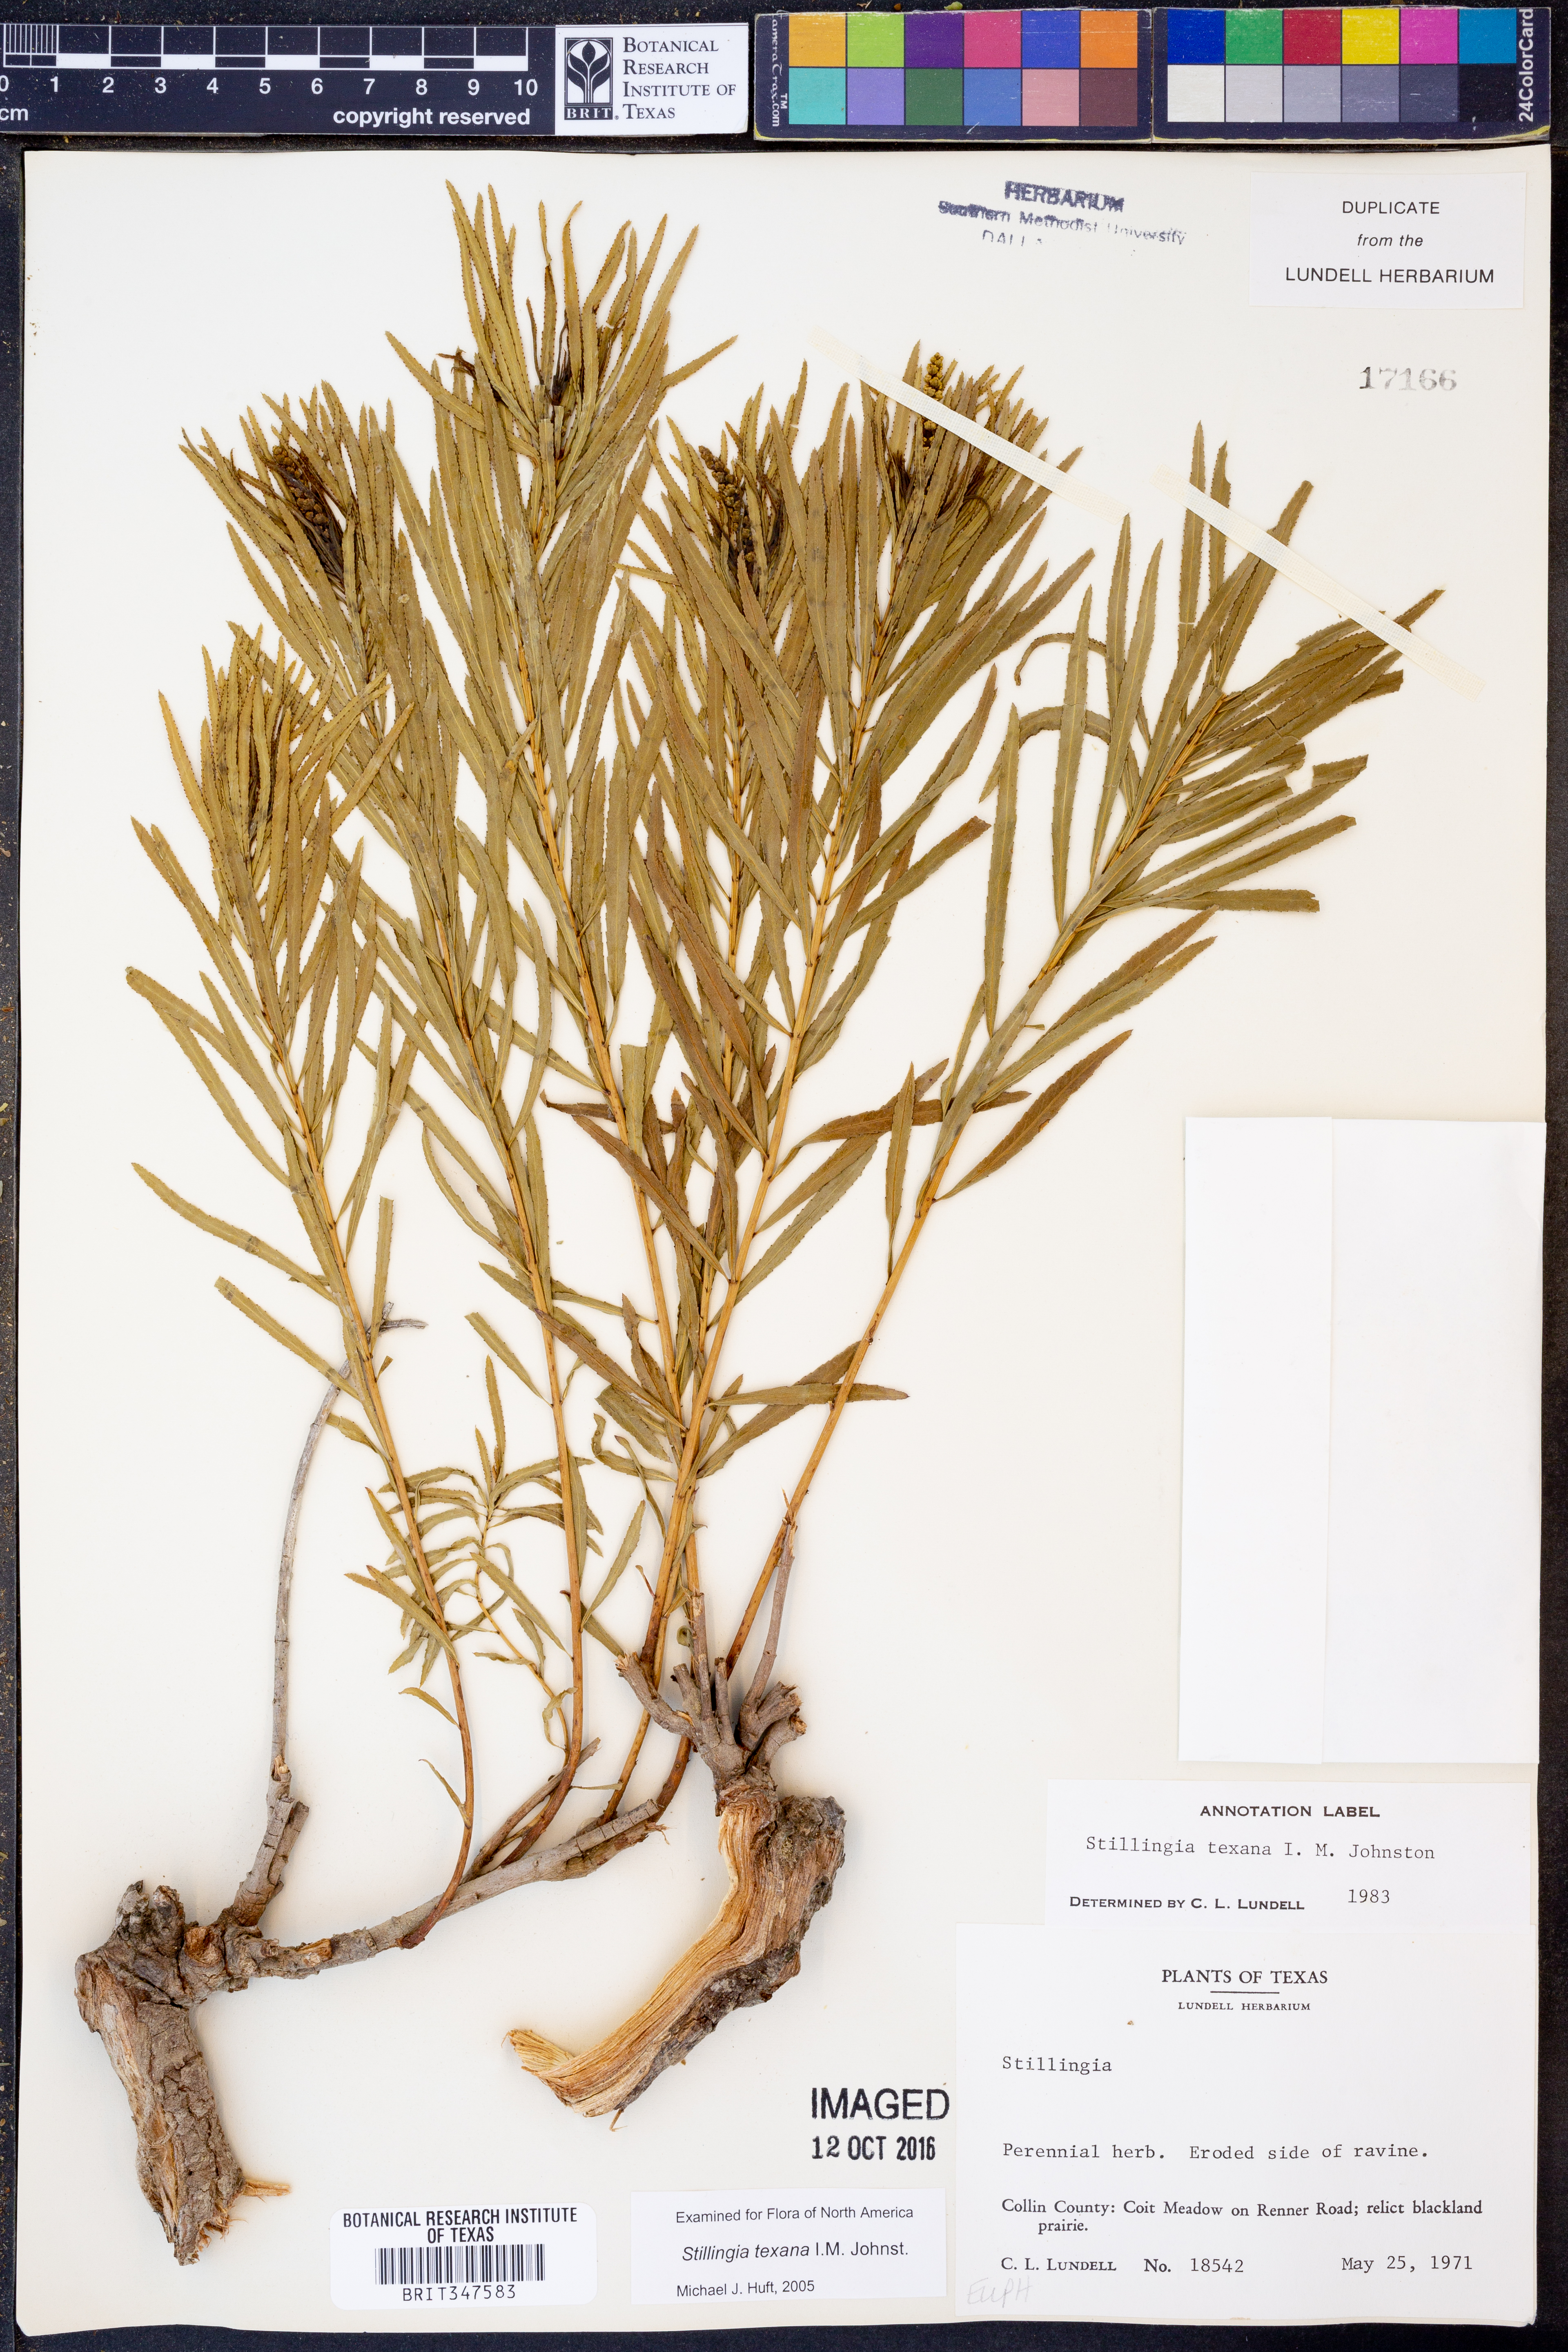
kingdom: Plantae
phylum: Tracheophyta
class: Magnoliopsida
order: Malpighiales
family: Euphorbiaceae
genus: Stillingia
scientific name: Stillingia texana
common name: Texas stillingia
